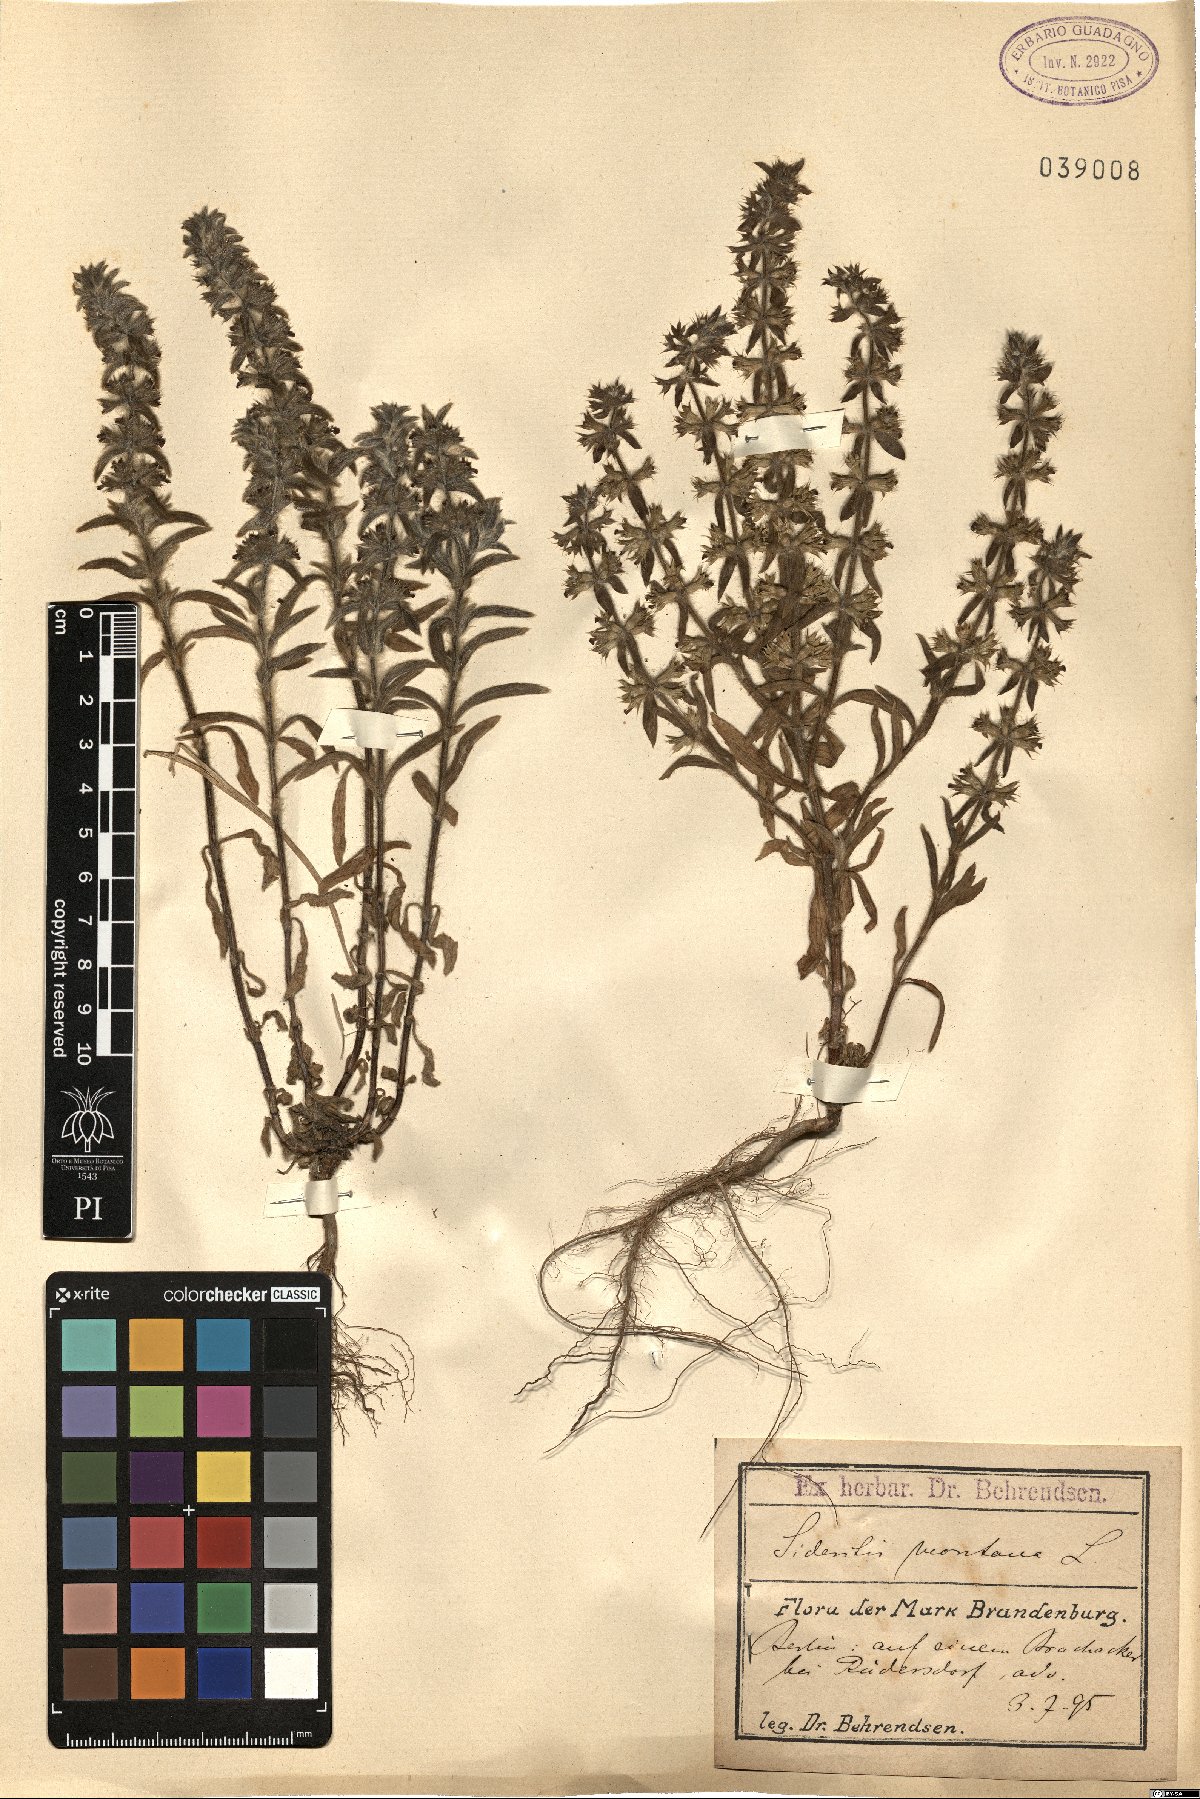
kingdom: Plantae
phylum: Tracheophyta
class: Magnoliopsida
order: Lamiales
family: Lamiaceae
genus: Sideritis
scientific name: Sideritis montana
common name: Mountain ironwort
